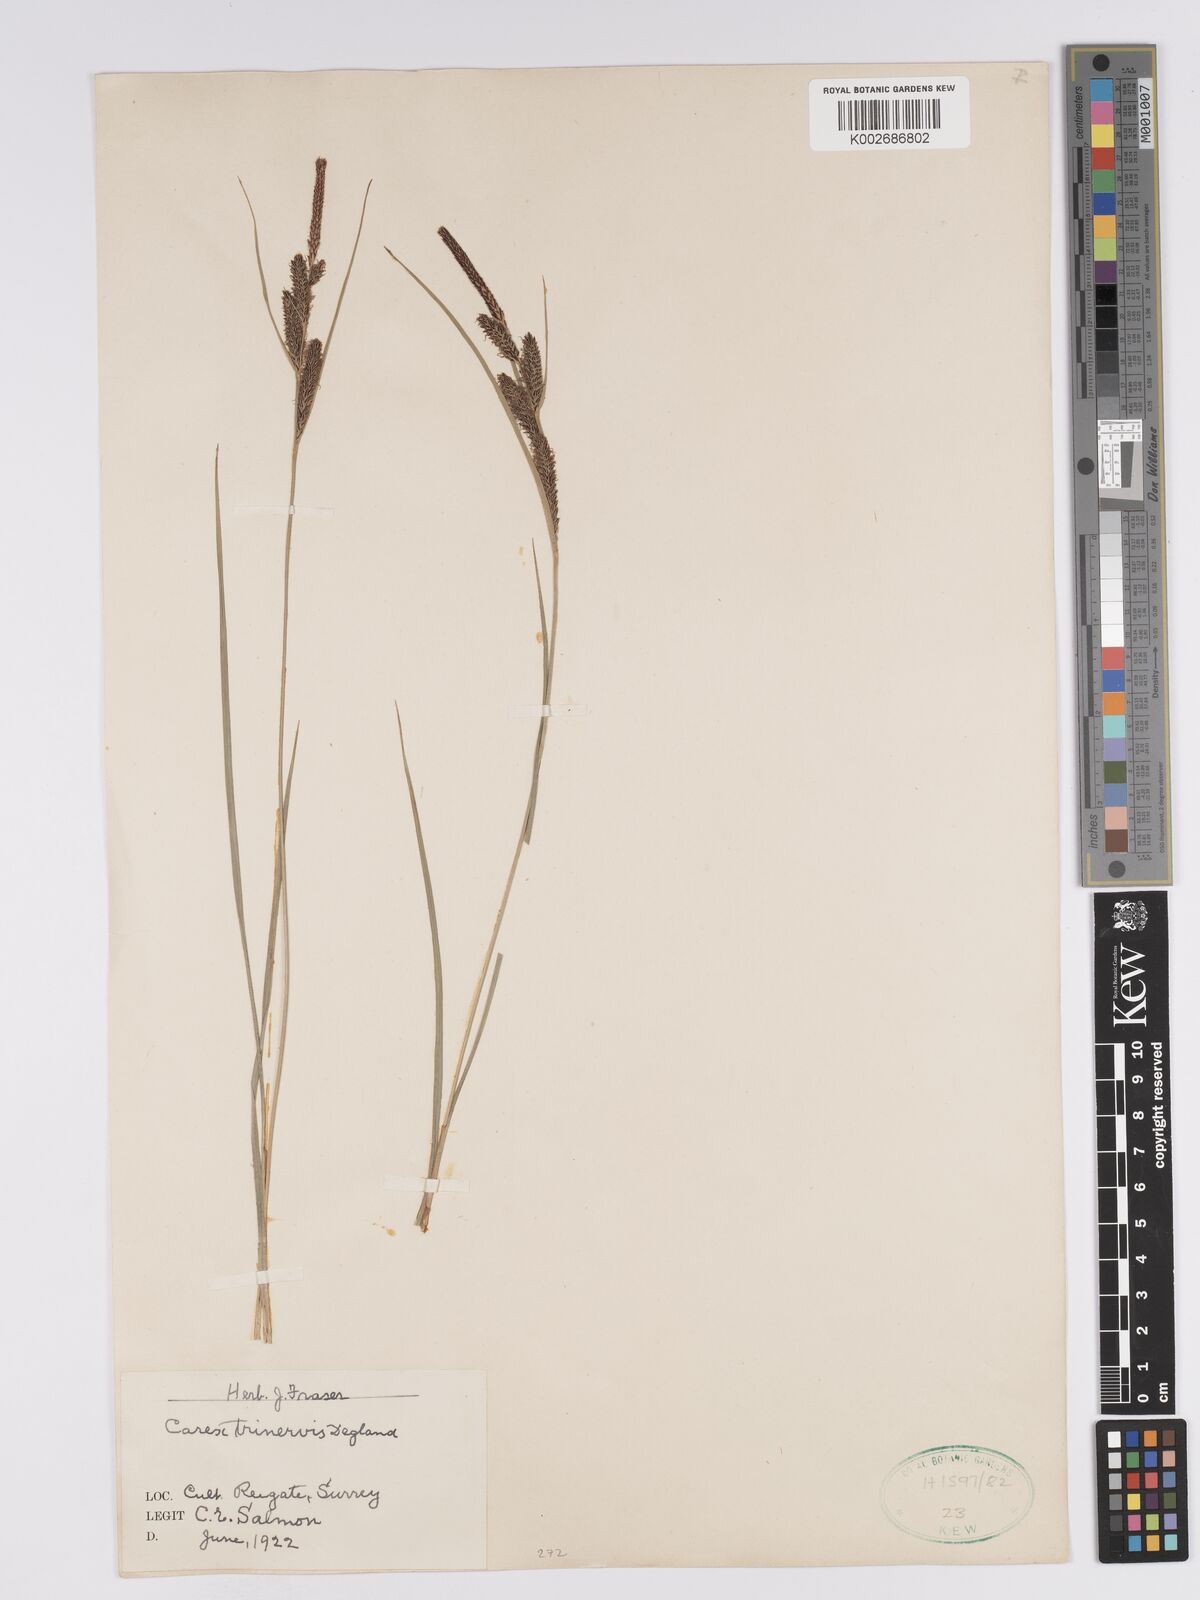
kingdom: Plantae
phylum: Tracheophyta
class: Liliopsida
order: Poales
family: Cyperaceae
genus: Carex
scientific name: Carex trinervis
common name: Three-nerved sedge
